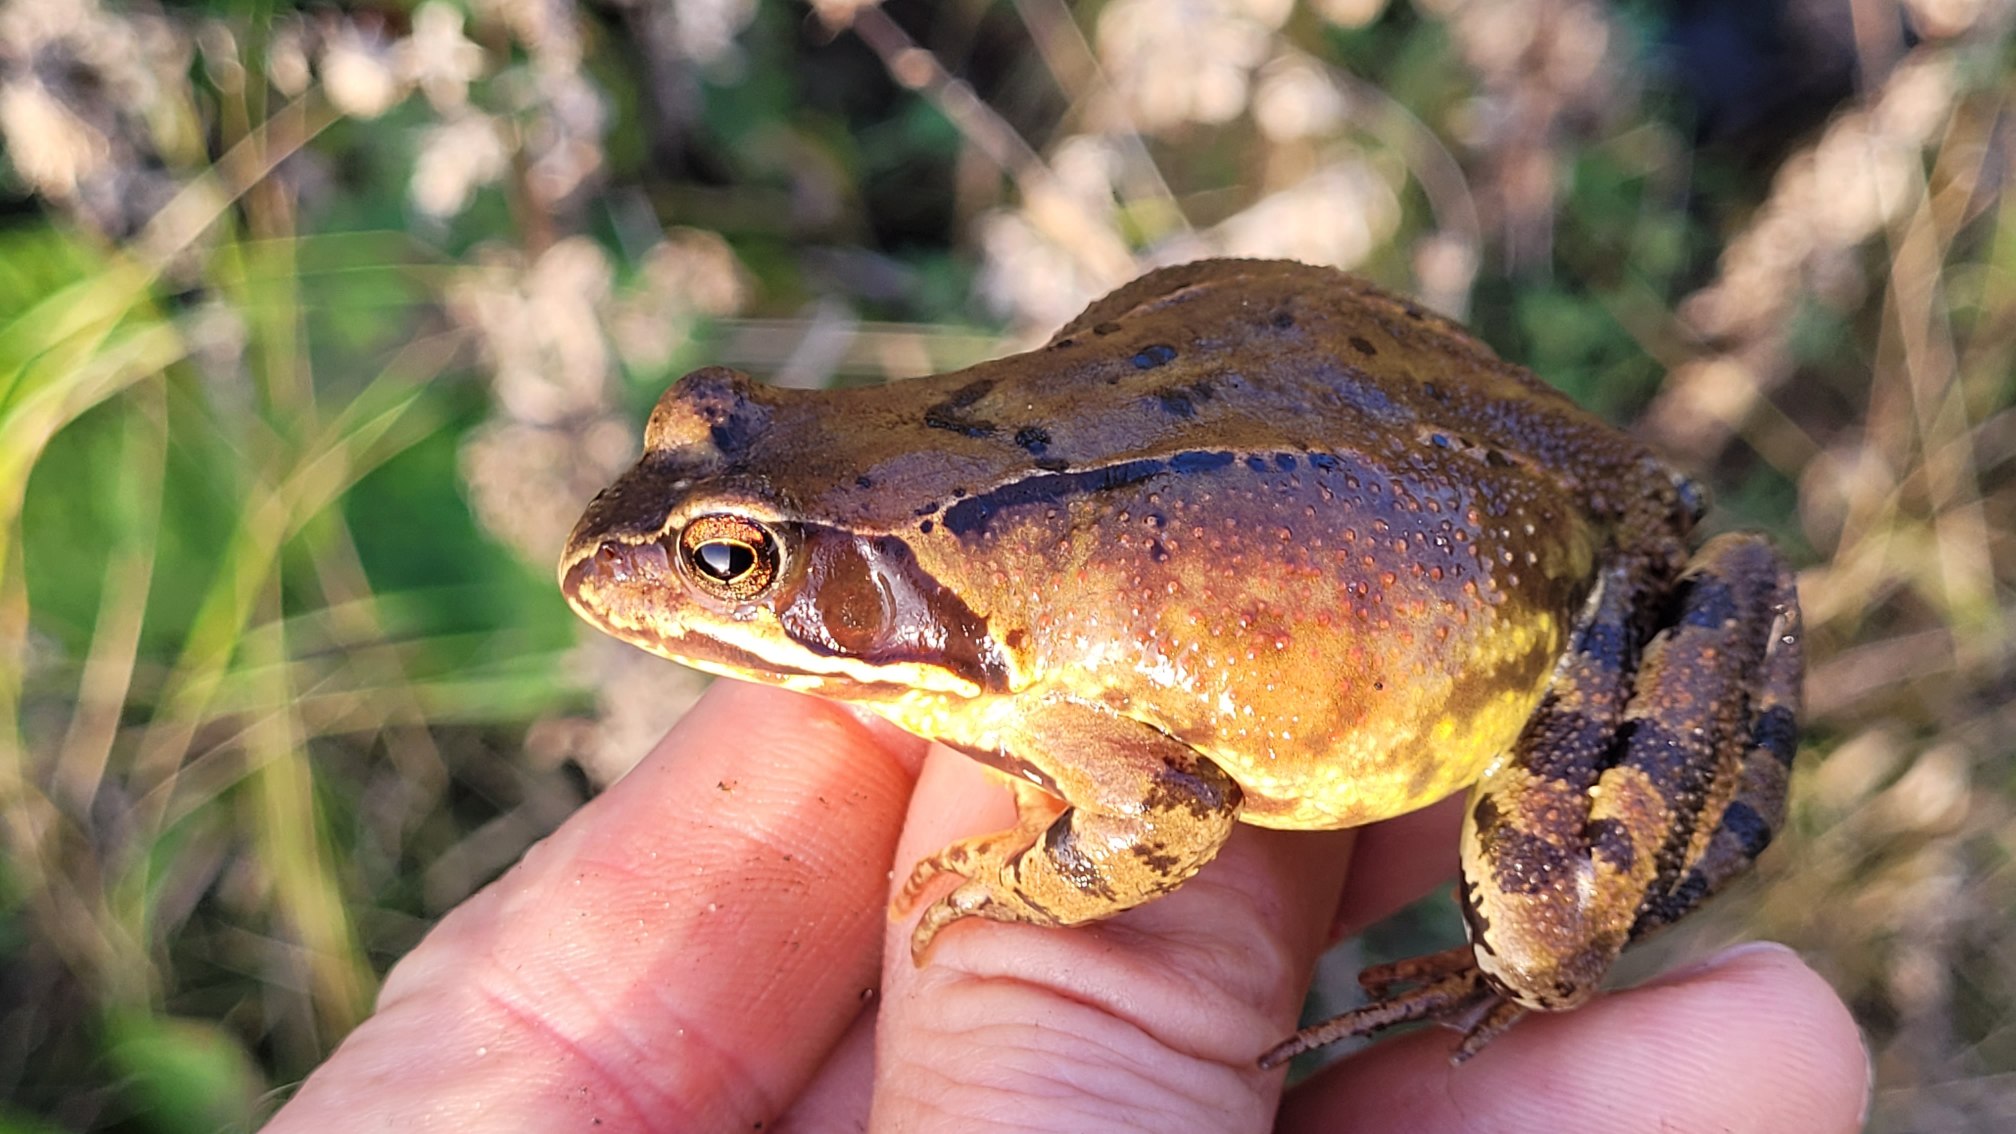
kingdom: Animalia
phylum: Chordata
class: Amphibia
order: Anura
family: Ranidae
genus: Rana
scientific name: Rana temporaria
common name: Butsnudet frø
